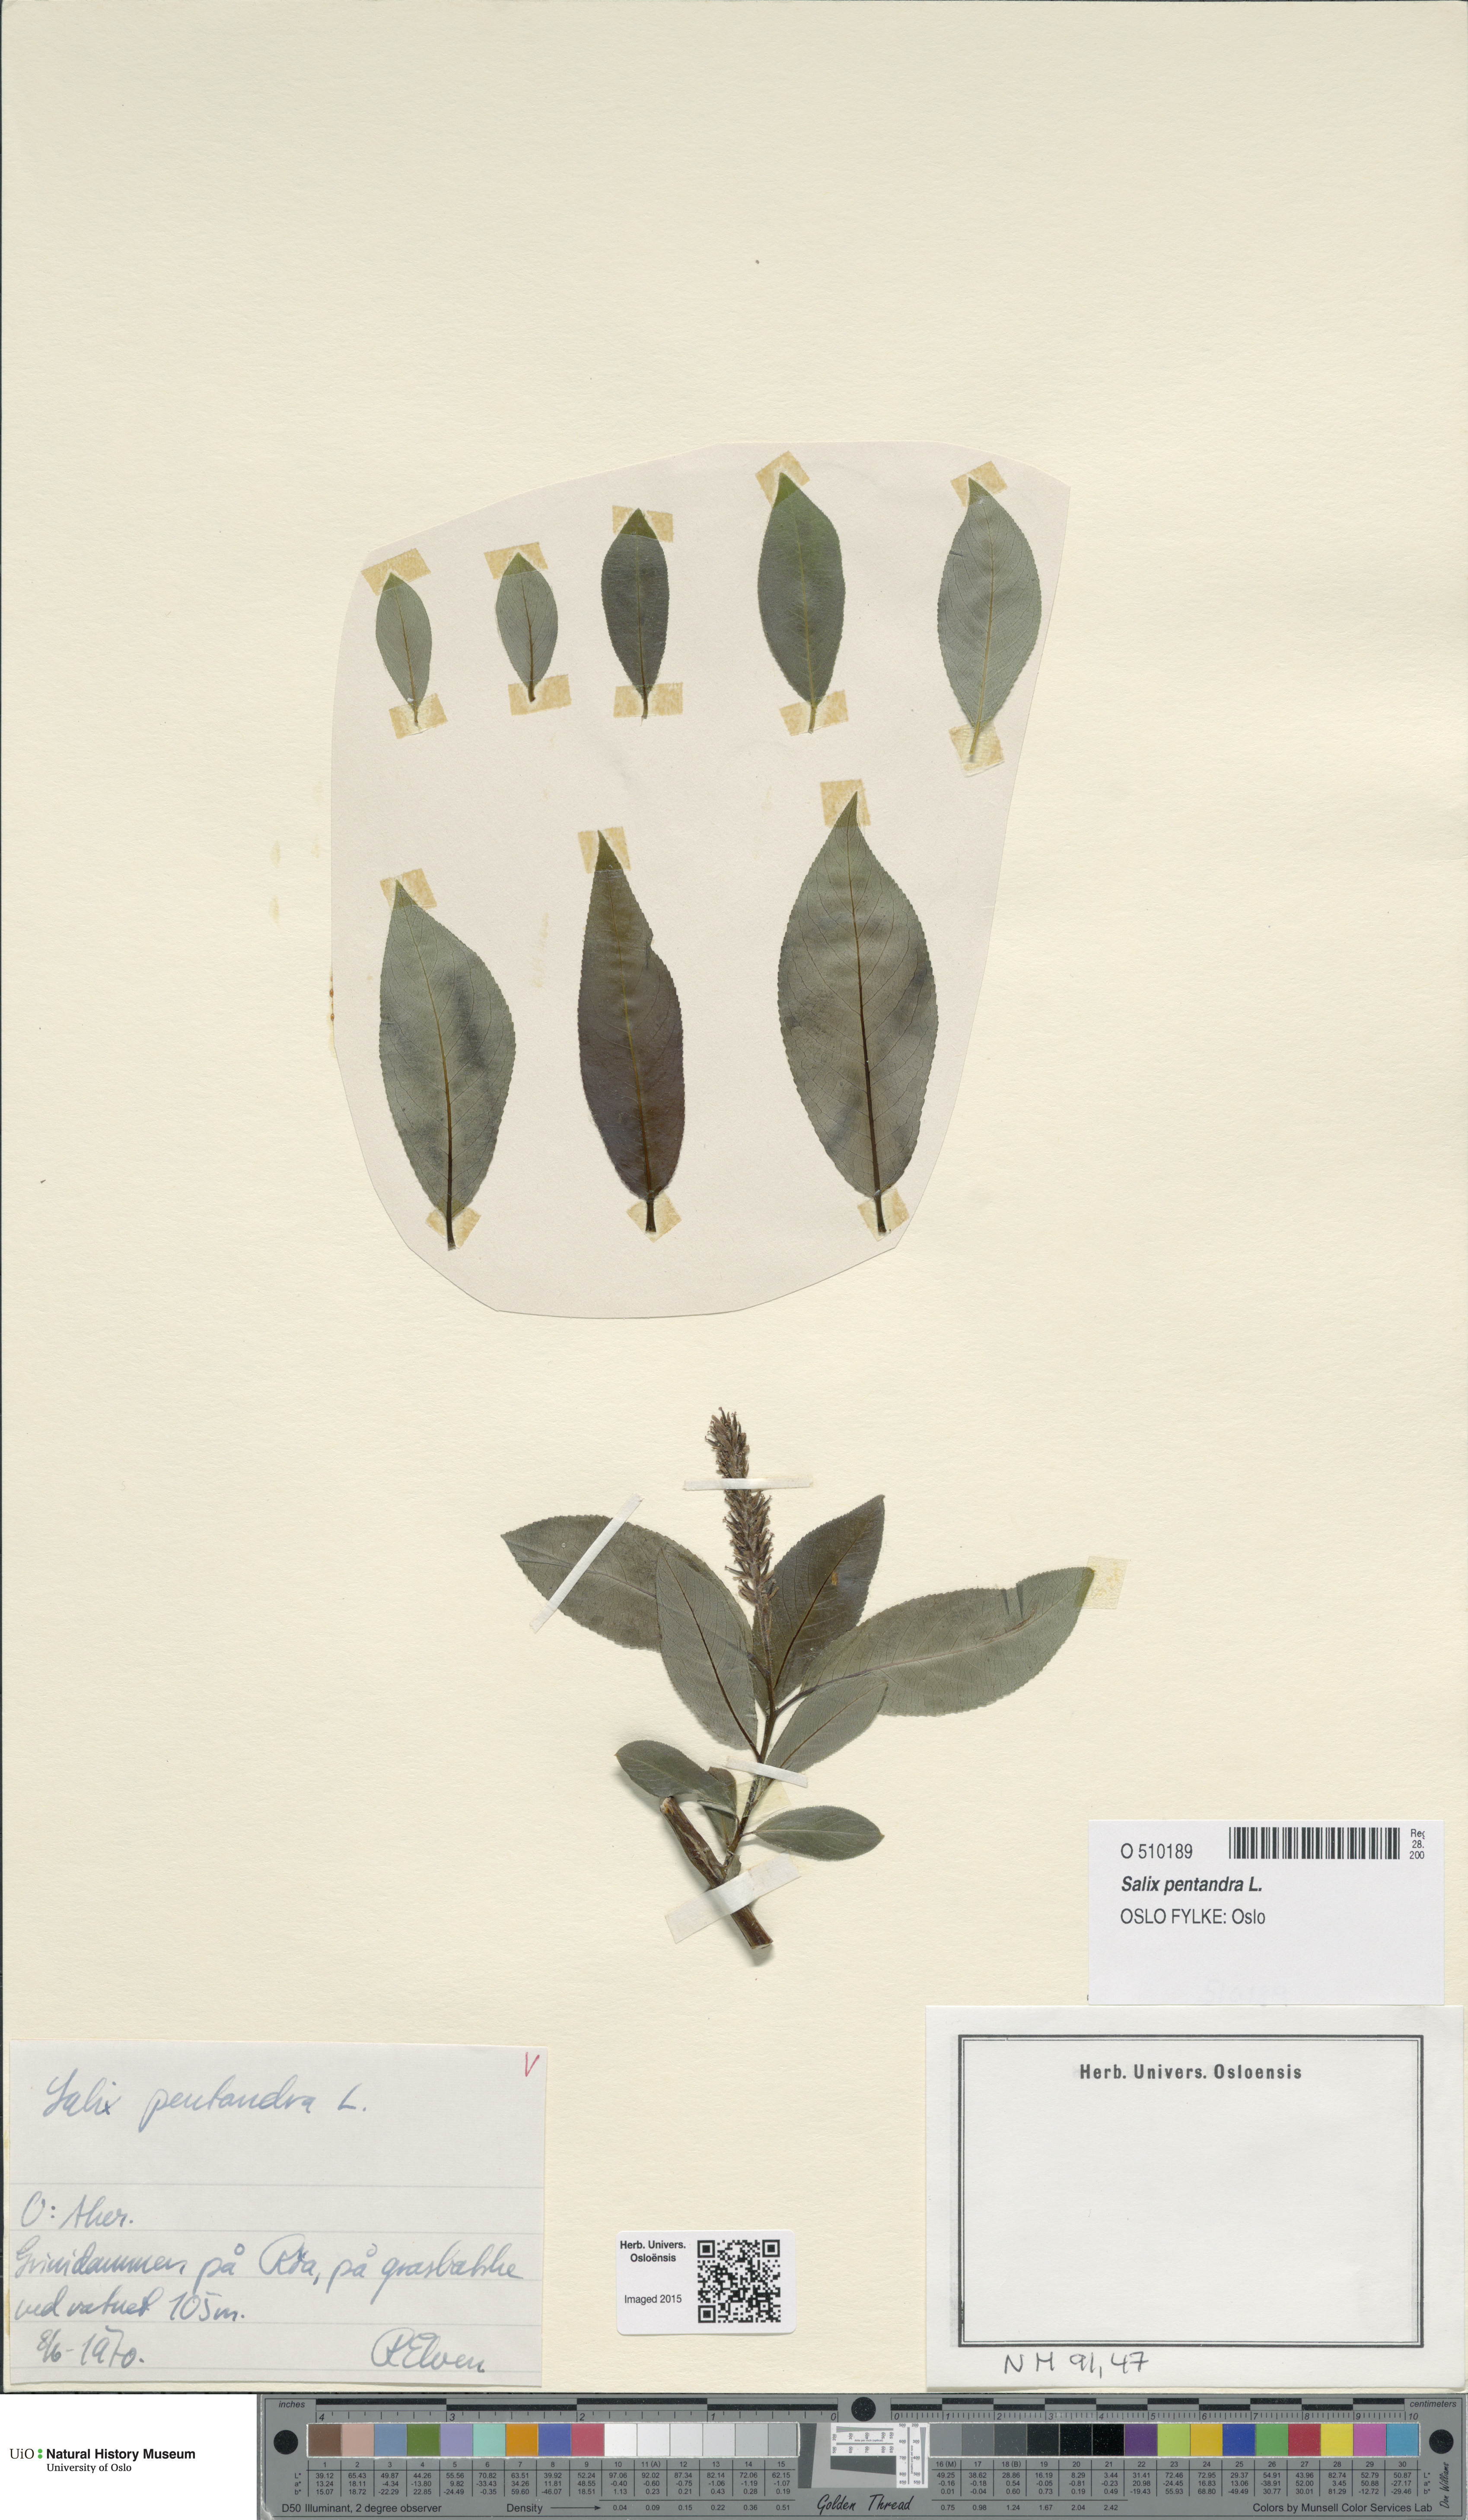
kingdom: Plantae
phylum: Tracheophyta
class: Magnoliopsida
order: Malpighiales
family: Salicaceae
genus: Salix
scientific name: Salix pentandra
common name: Bay willow
